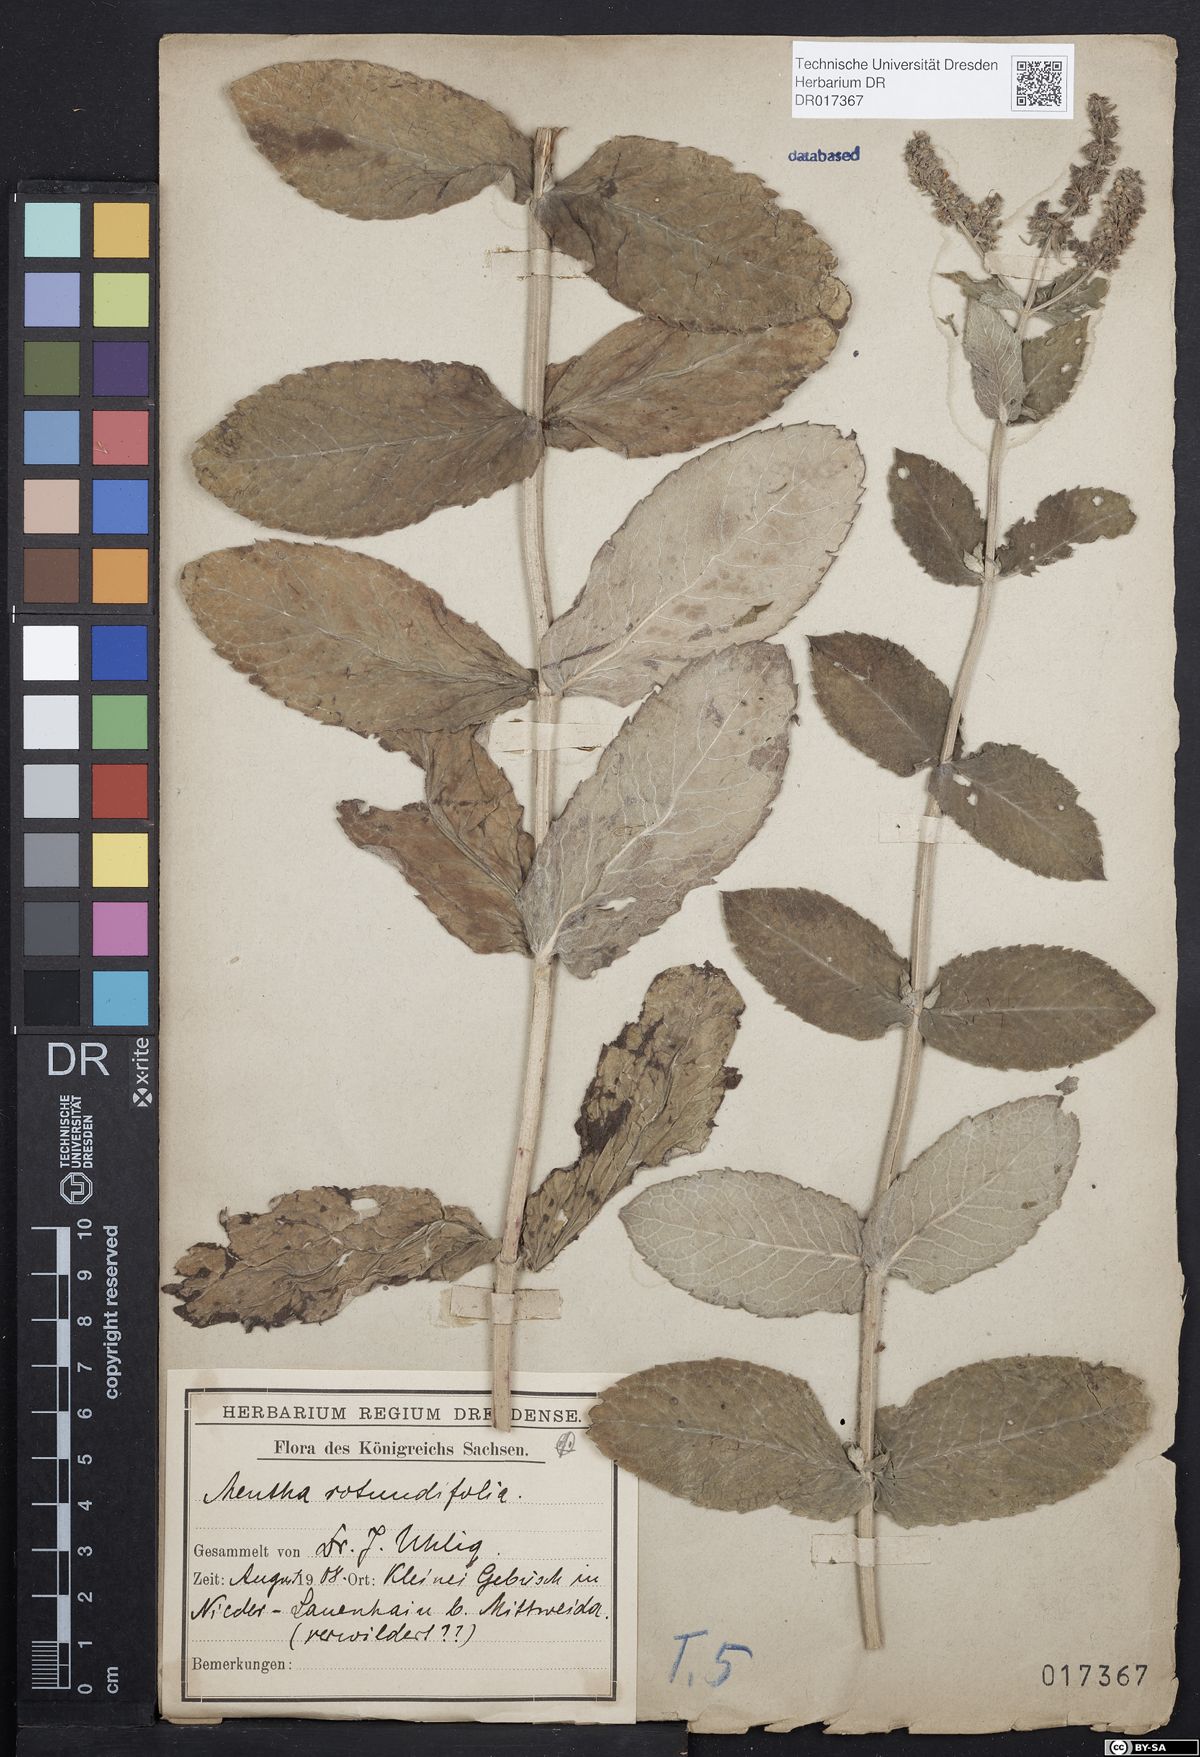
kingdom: Plantae
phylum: Tracheophyta
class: Magnoliopsida
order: Lamiales
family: Lamiaceae
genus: Mentha
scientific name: Mentha villosa
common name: Apple mint
